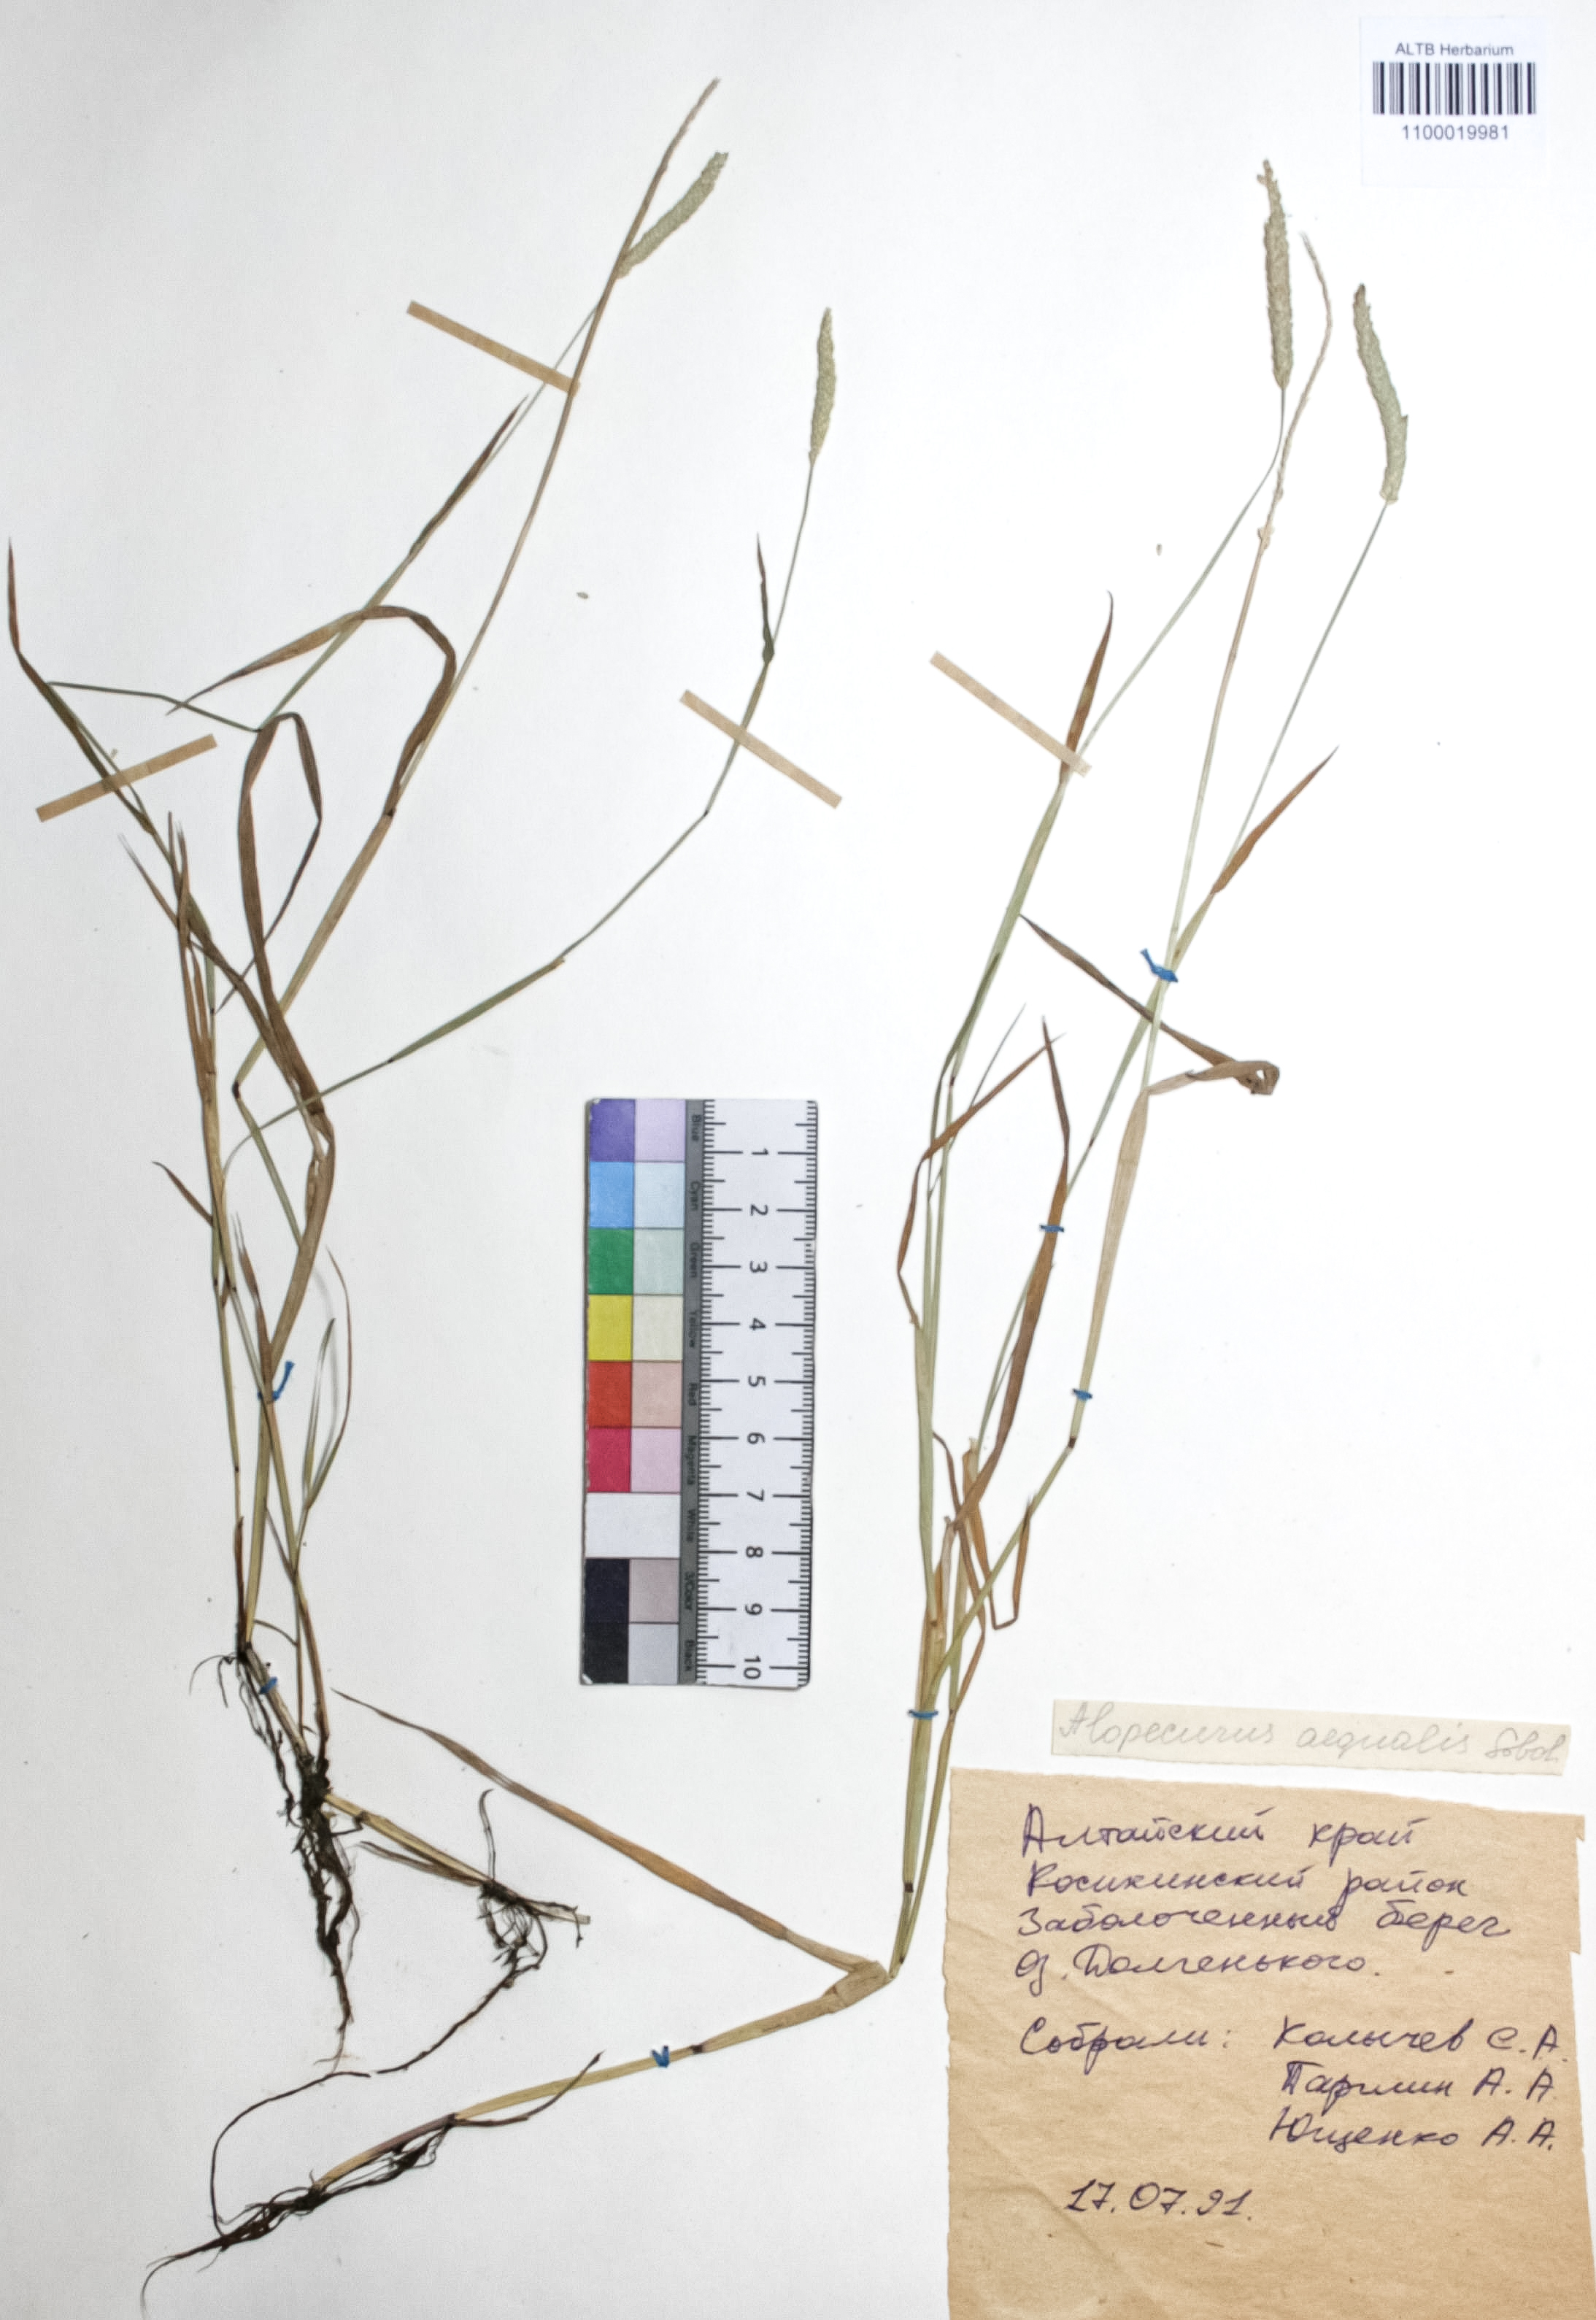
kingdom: Plantae
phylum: Tracheophyta
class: Liliopsida
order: Poales
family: Poaceae
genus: Alopecurus
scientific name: Alopecurus aequalis
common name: Orange foxtail
